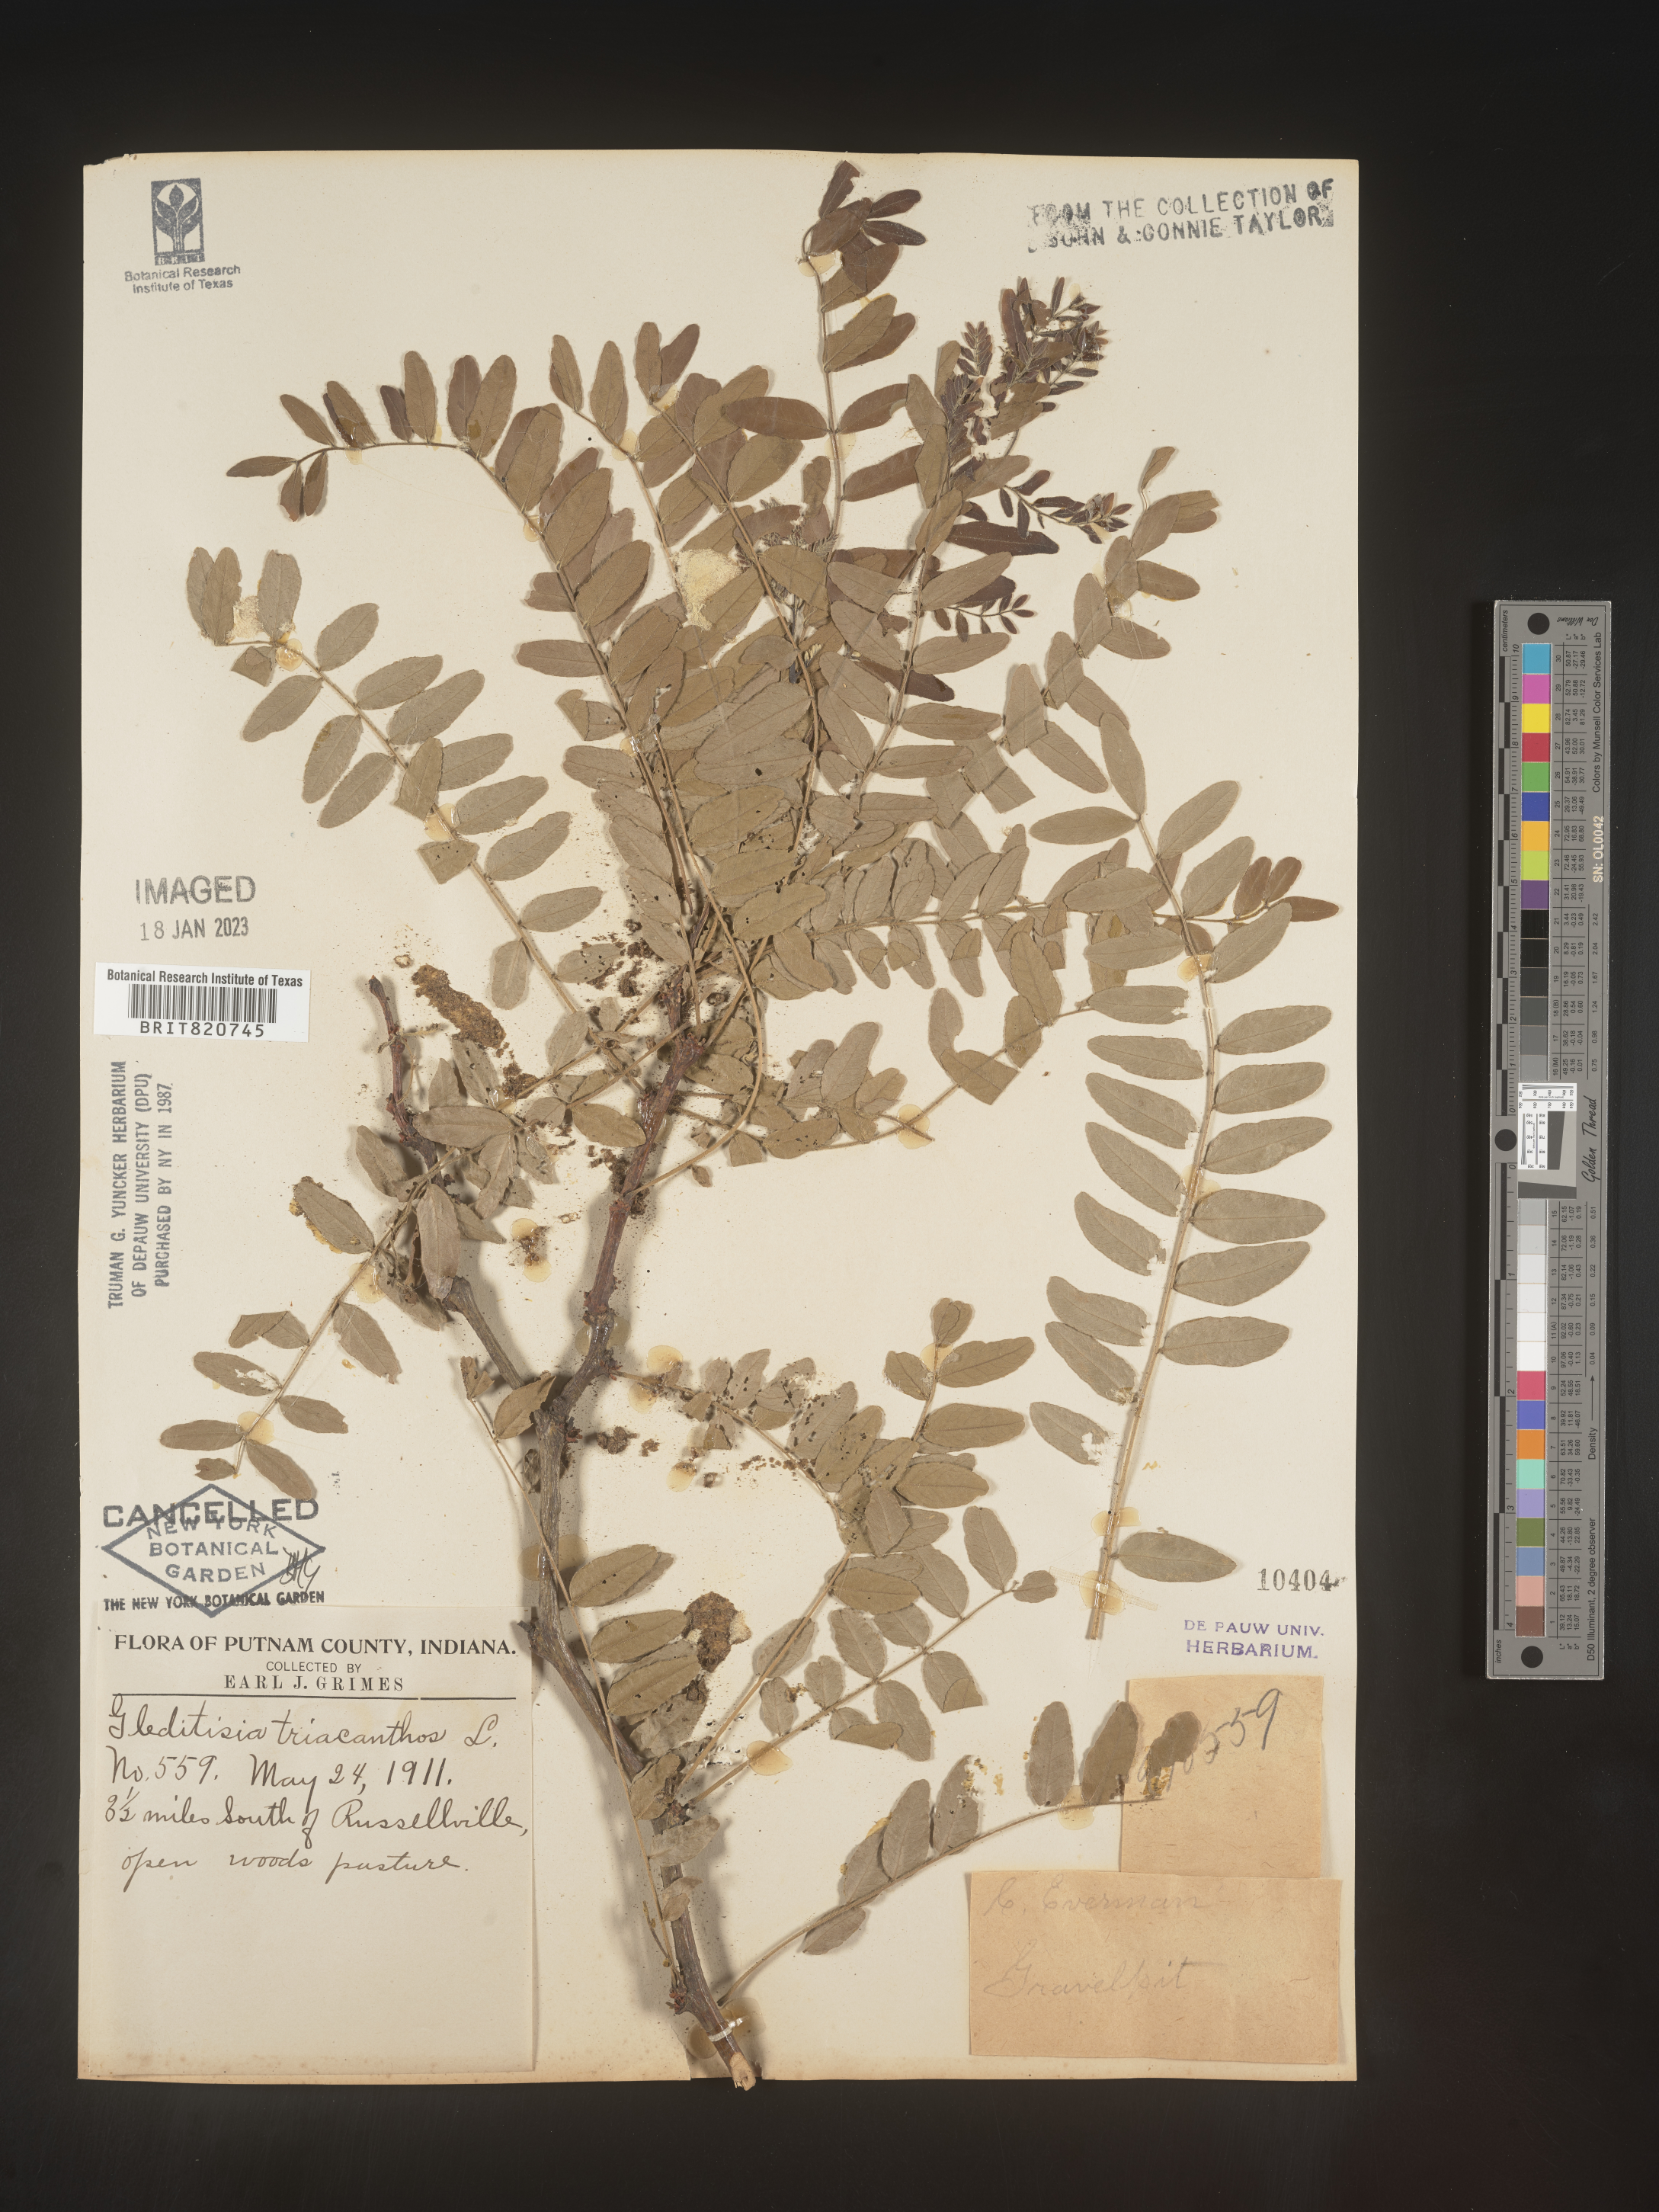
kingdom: Plantae
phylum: Tracheophyta
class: Magnoliopsida
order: Fabales
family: Fabaceae
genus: Gleditsia
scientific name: Gleditsia triacanthos
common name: Common honeylocust
